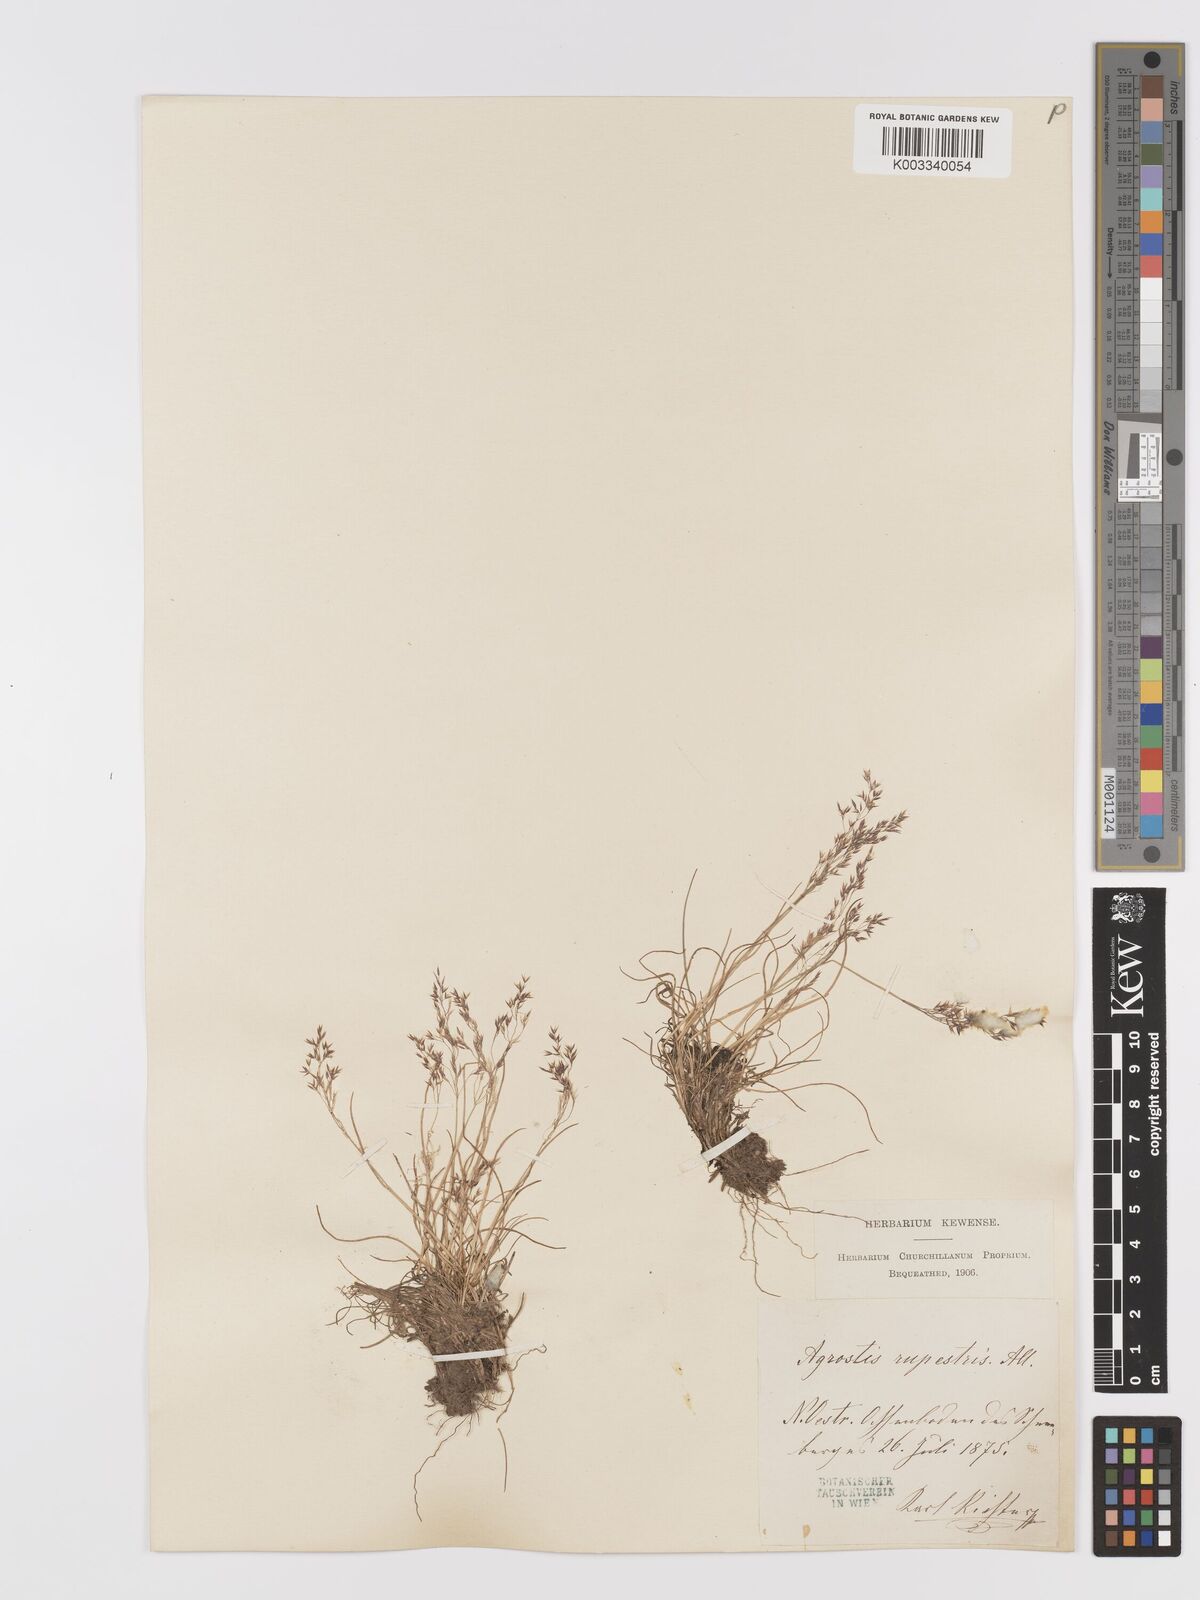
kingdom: Plantae
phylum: Tracheophyta
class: Liliopsida
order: Poales
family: Poaceae
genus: Agrostis
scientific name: Agrostis rupestris
